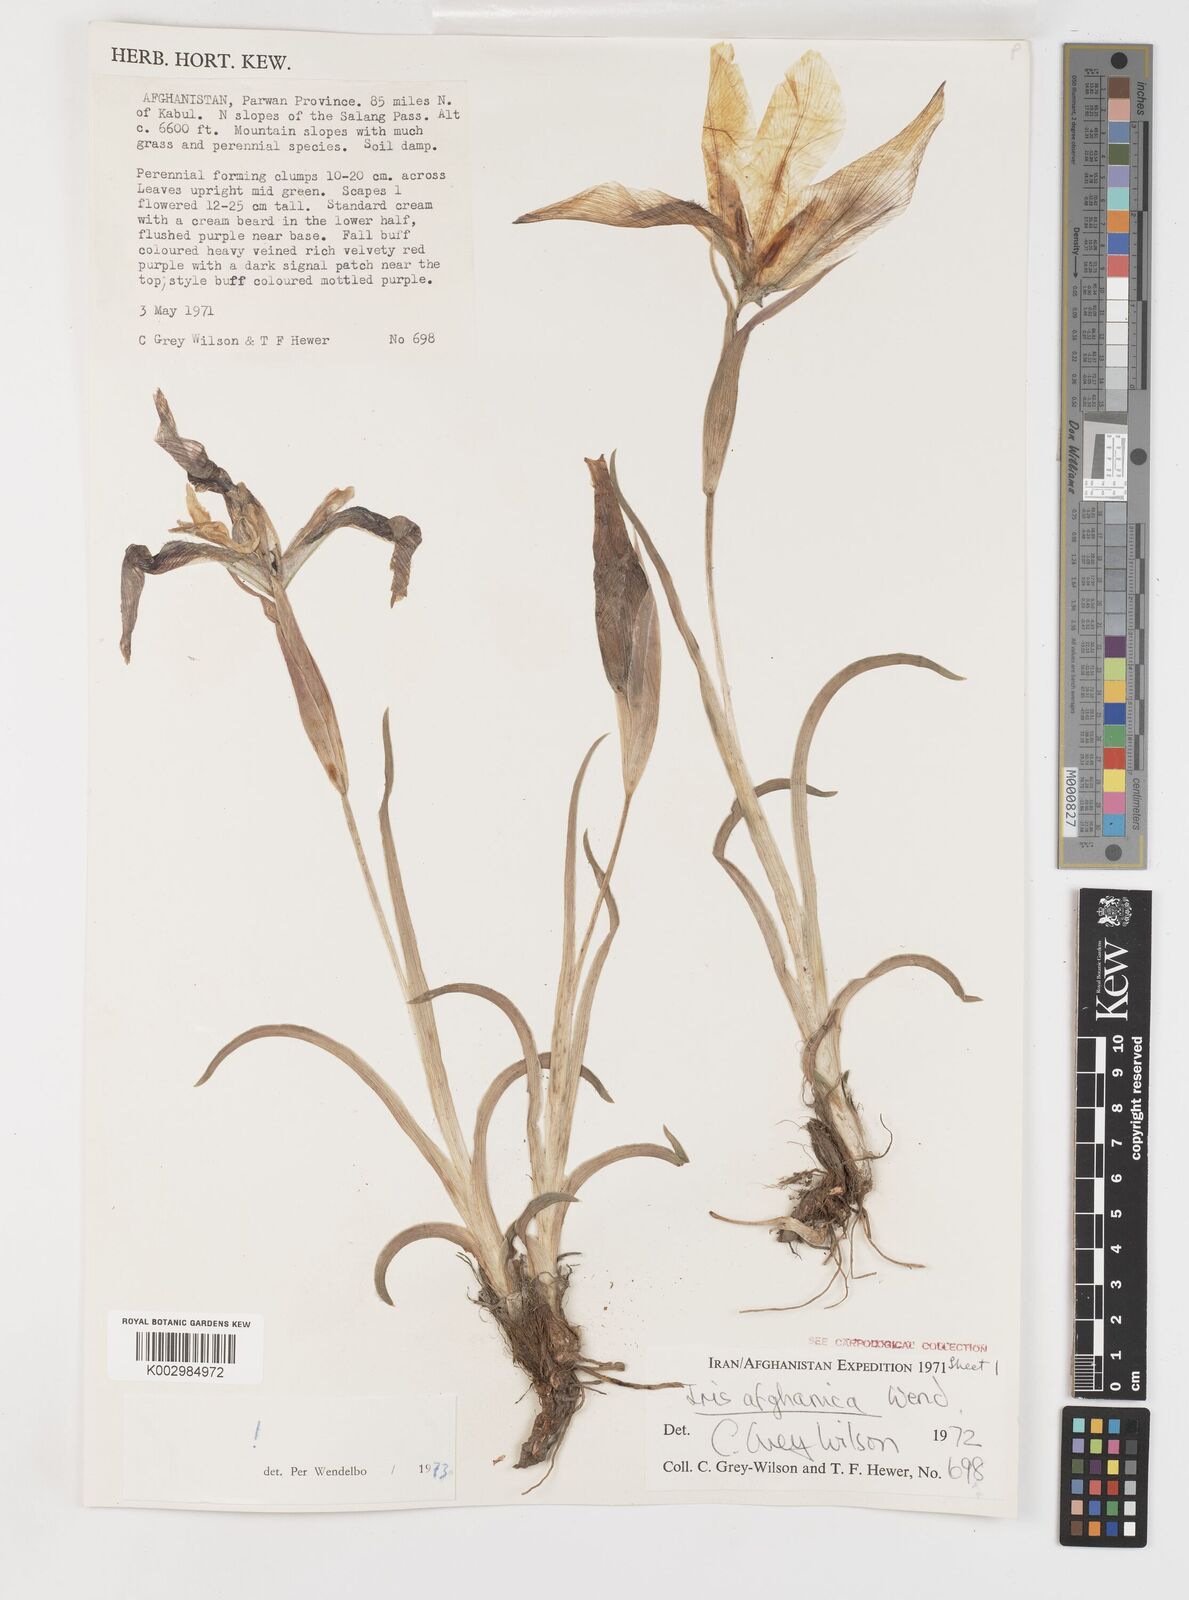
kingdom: Plantae
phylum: Tracheophyta
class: Liliopsida
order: Asparagales
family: Iridaceae
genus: Iris
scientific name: Iris afghanica
